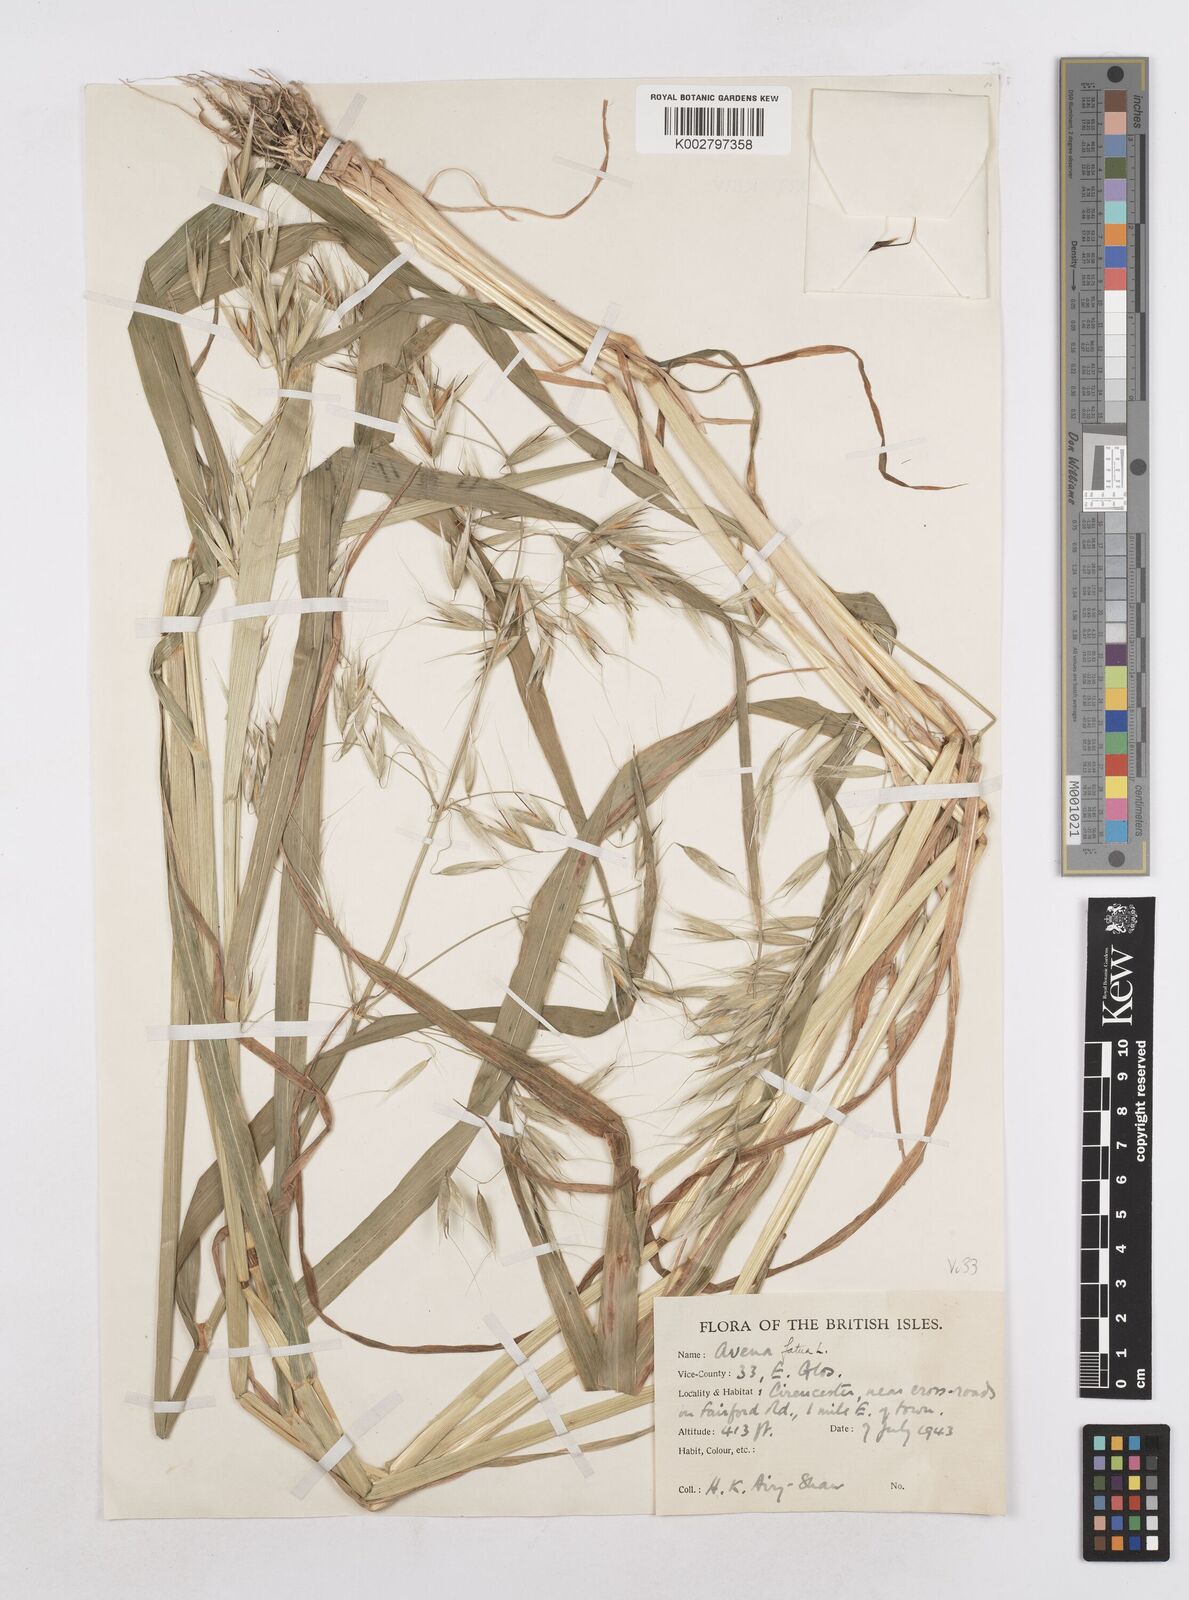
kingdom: Plantae
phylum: Tracheophyta
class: Liliopsida
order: Poales
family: Poaceae
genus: Avena
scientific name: Avena fatua
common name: Wild oat
